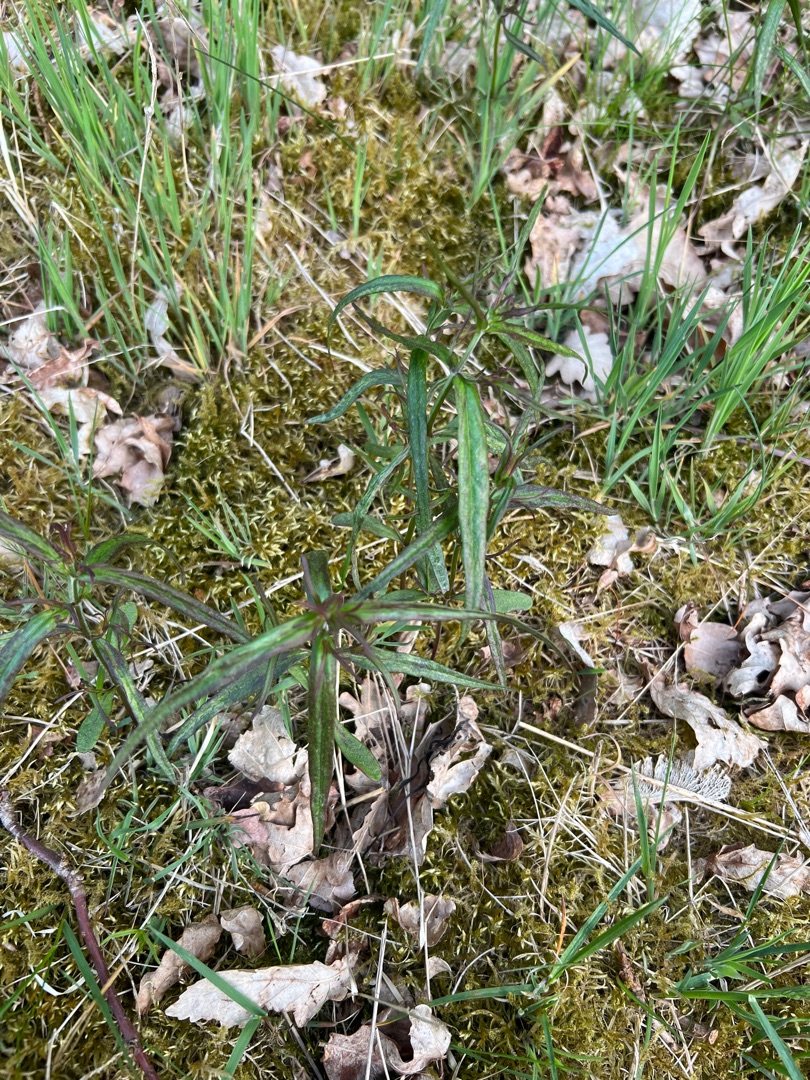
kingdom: Plantae
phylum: Tracheophyta
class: Magnoliopsida
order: Lamiales
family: Orobanchaceae
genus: Melampyrum
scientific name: Melampyrum pratense
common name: Almindelig kohvede
